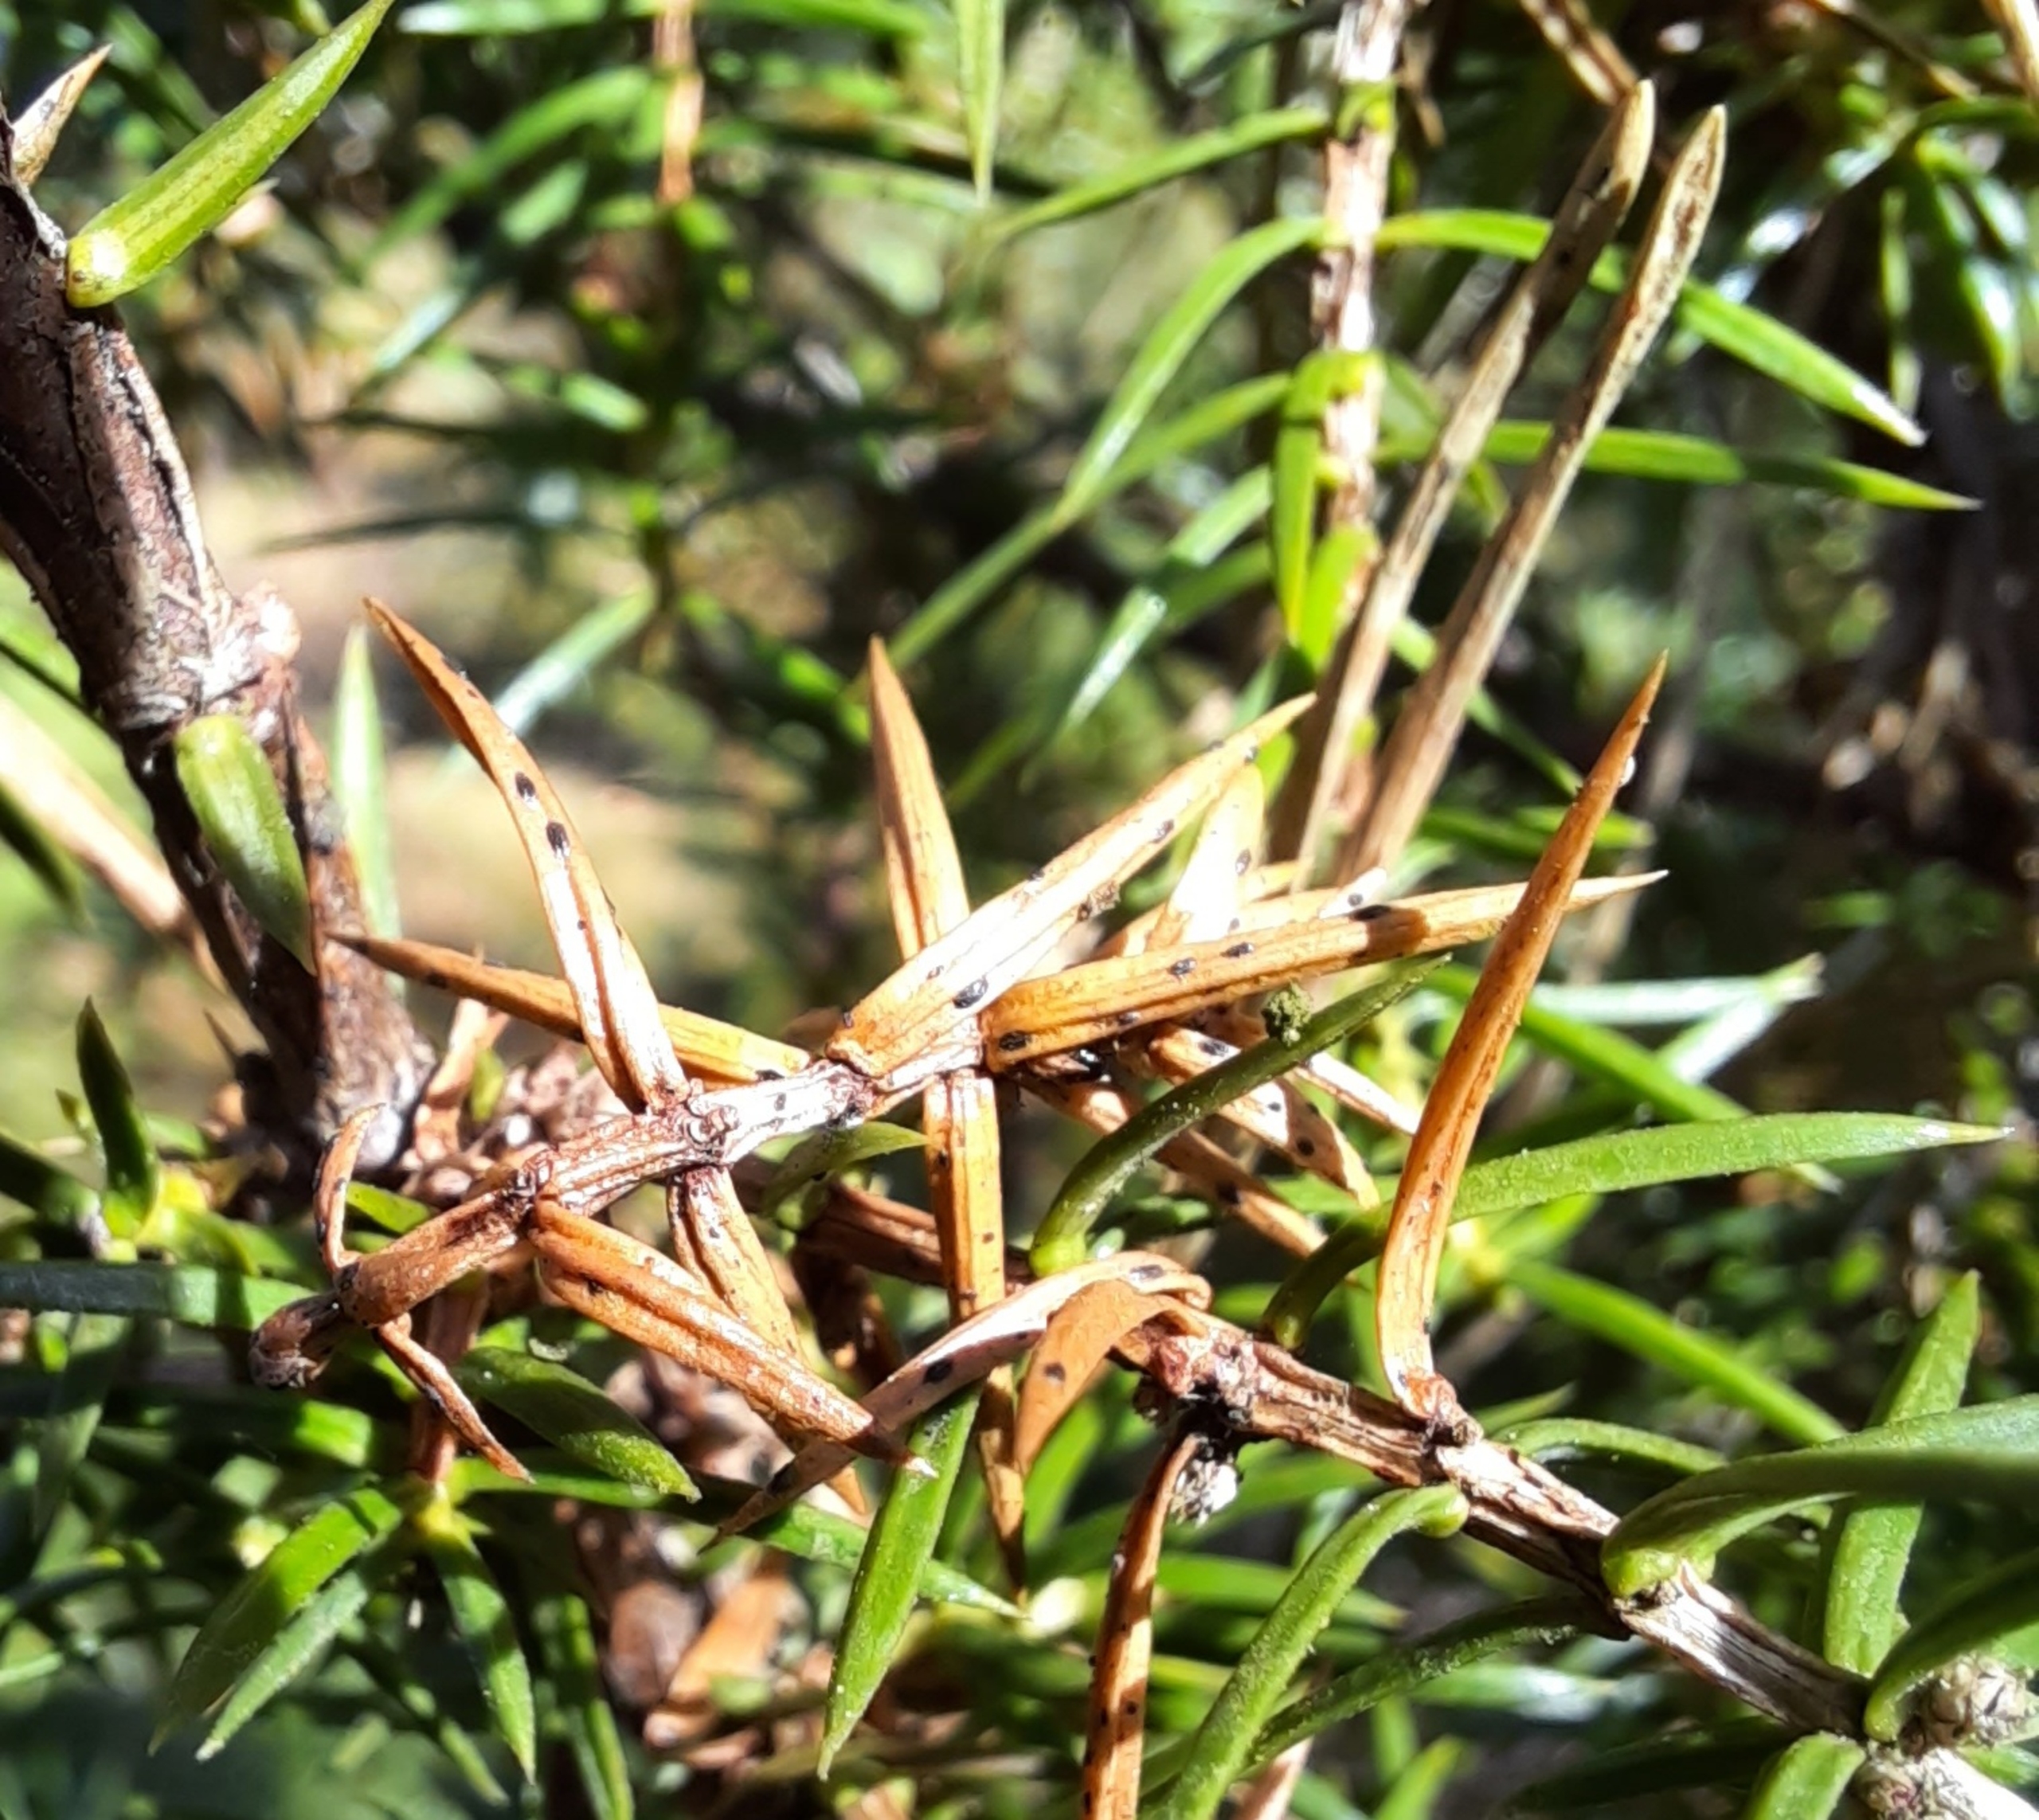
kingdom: Fungi
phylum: Ascomycota
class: Leotiomycetes
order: Rhytismatales
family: Rhytismataceae
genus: Lophodermium
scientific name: Lophodermium juniperinum
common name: Ene-fureplet
